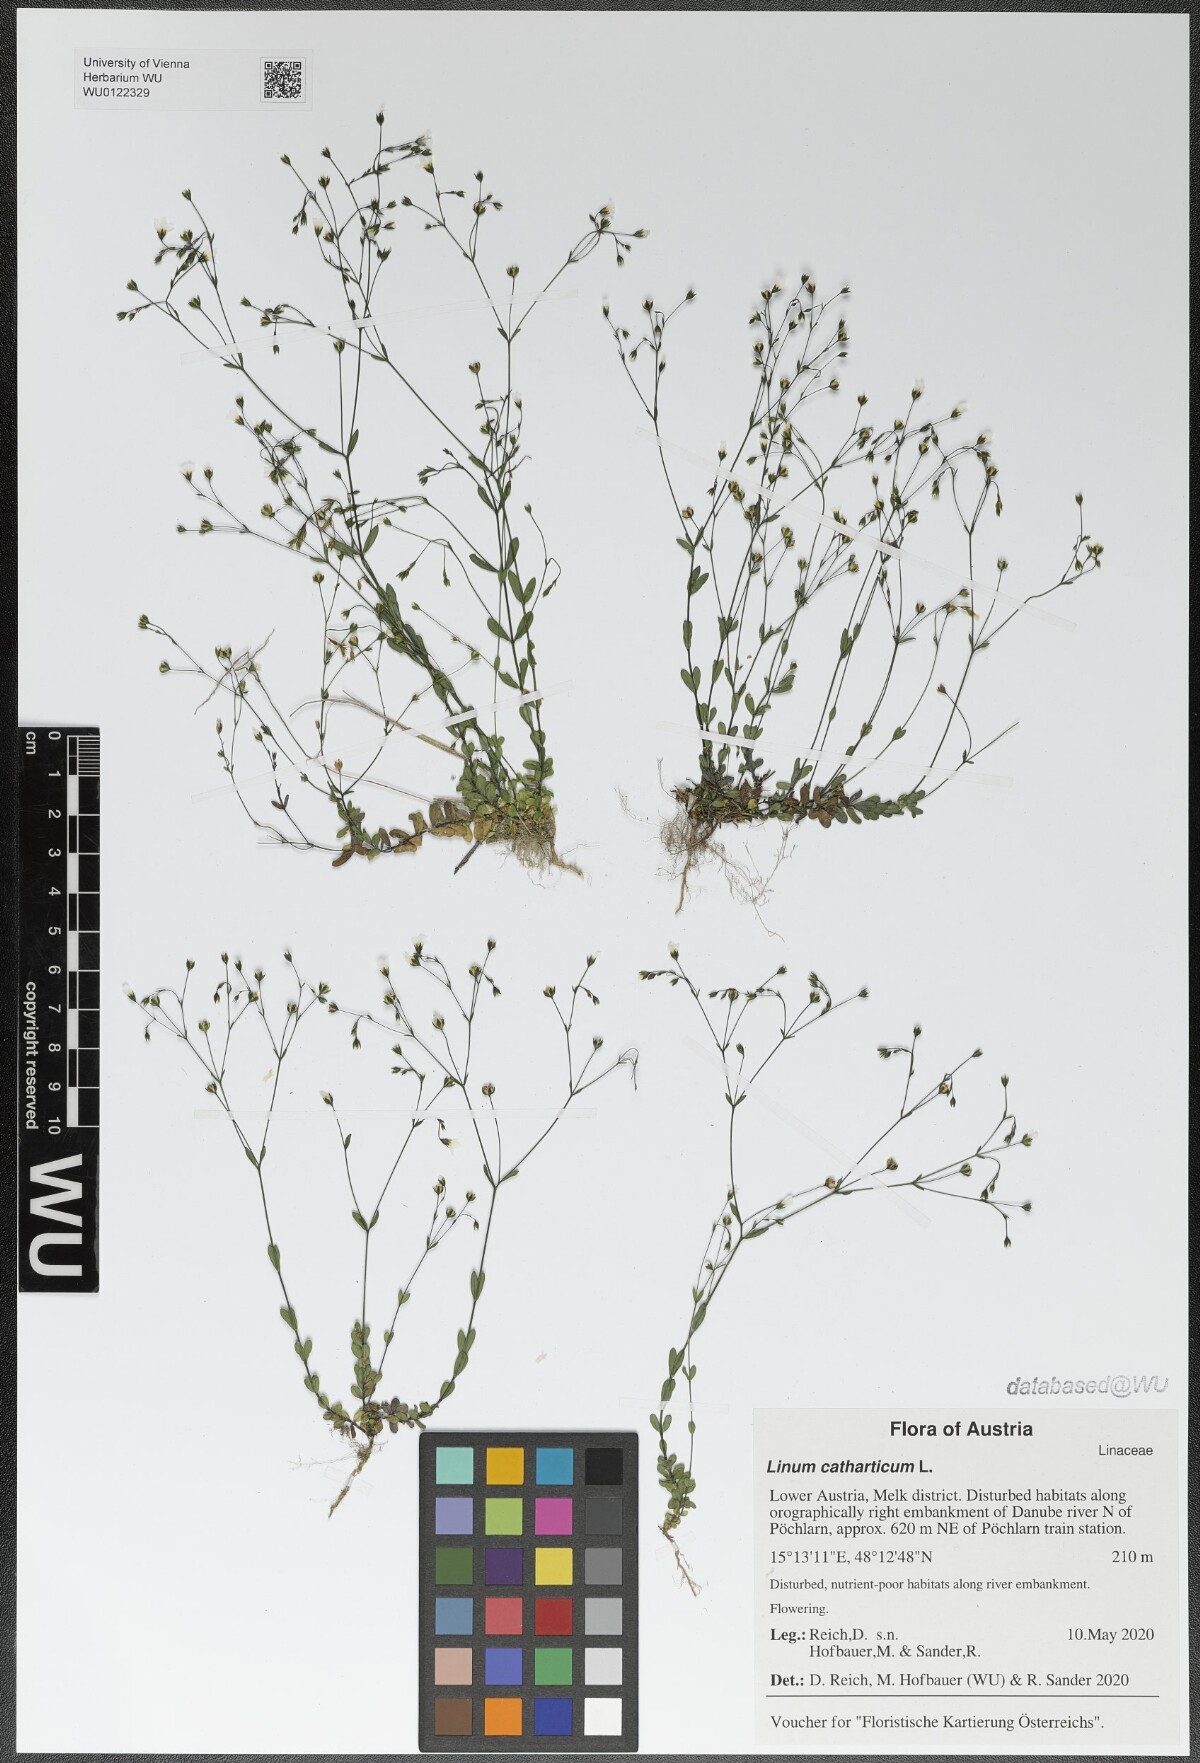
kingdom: Plantae
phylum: Tracheophyta
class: Magnoliopsida
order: Malpighiales
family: Linaceae
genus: Linum
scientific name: Linum catharticum
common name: Fairy flax
